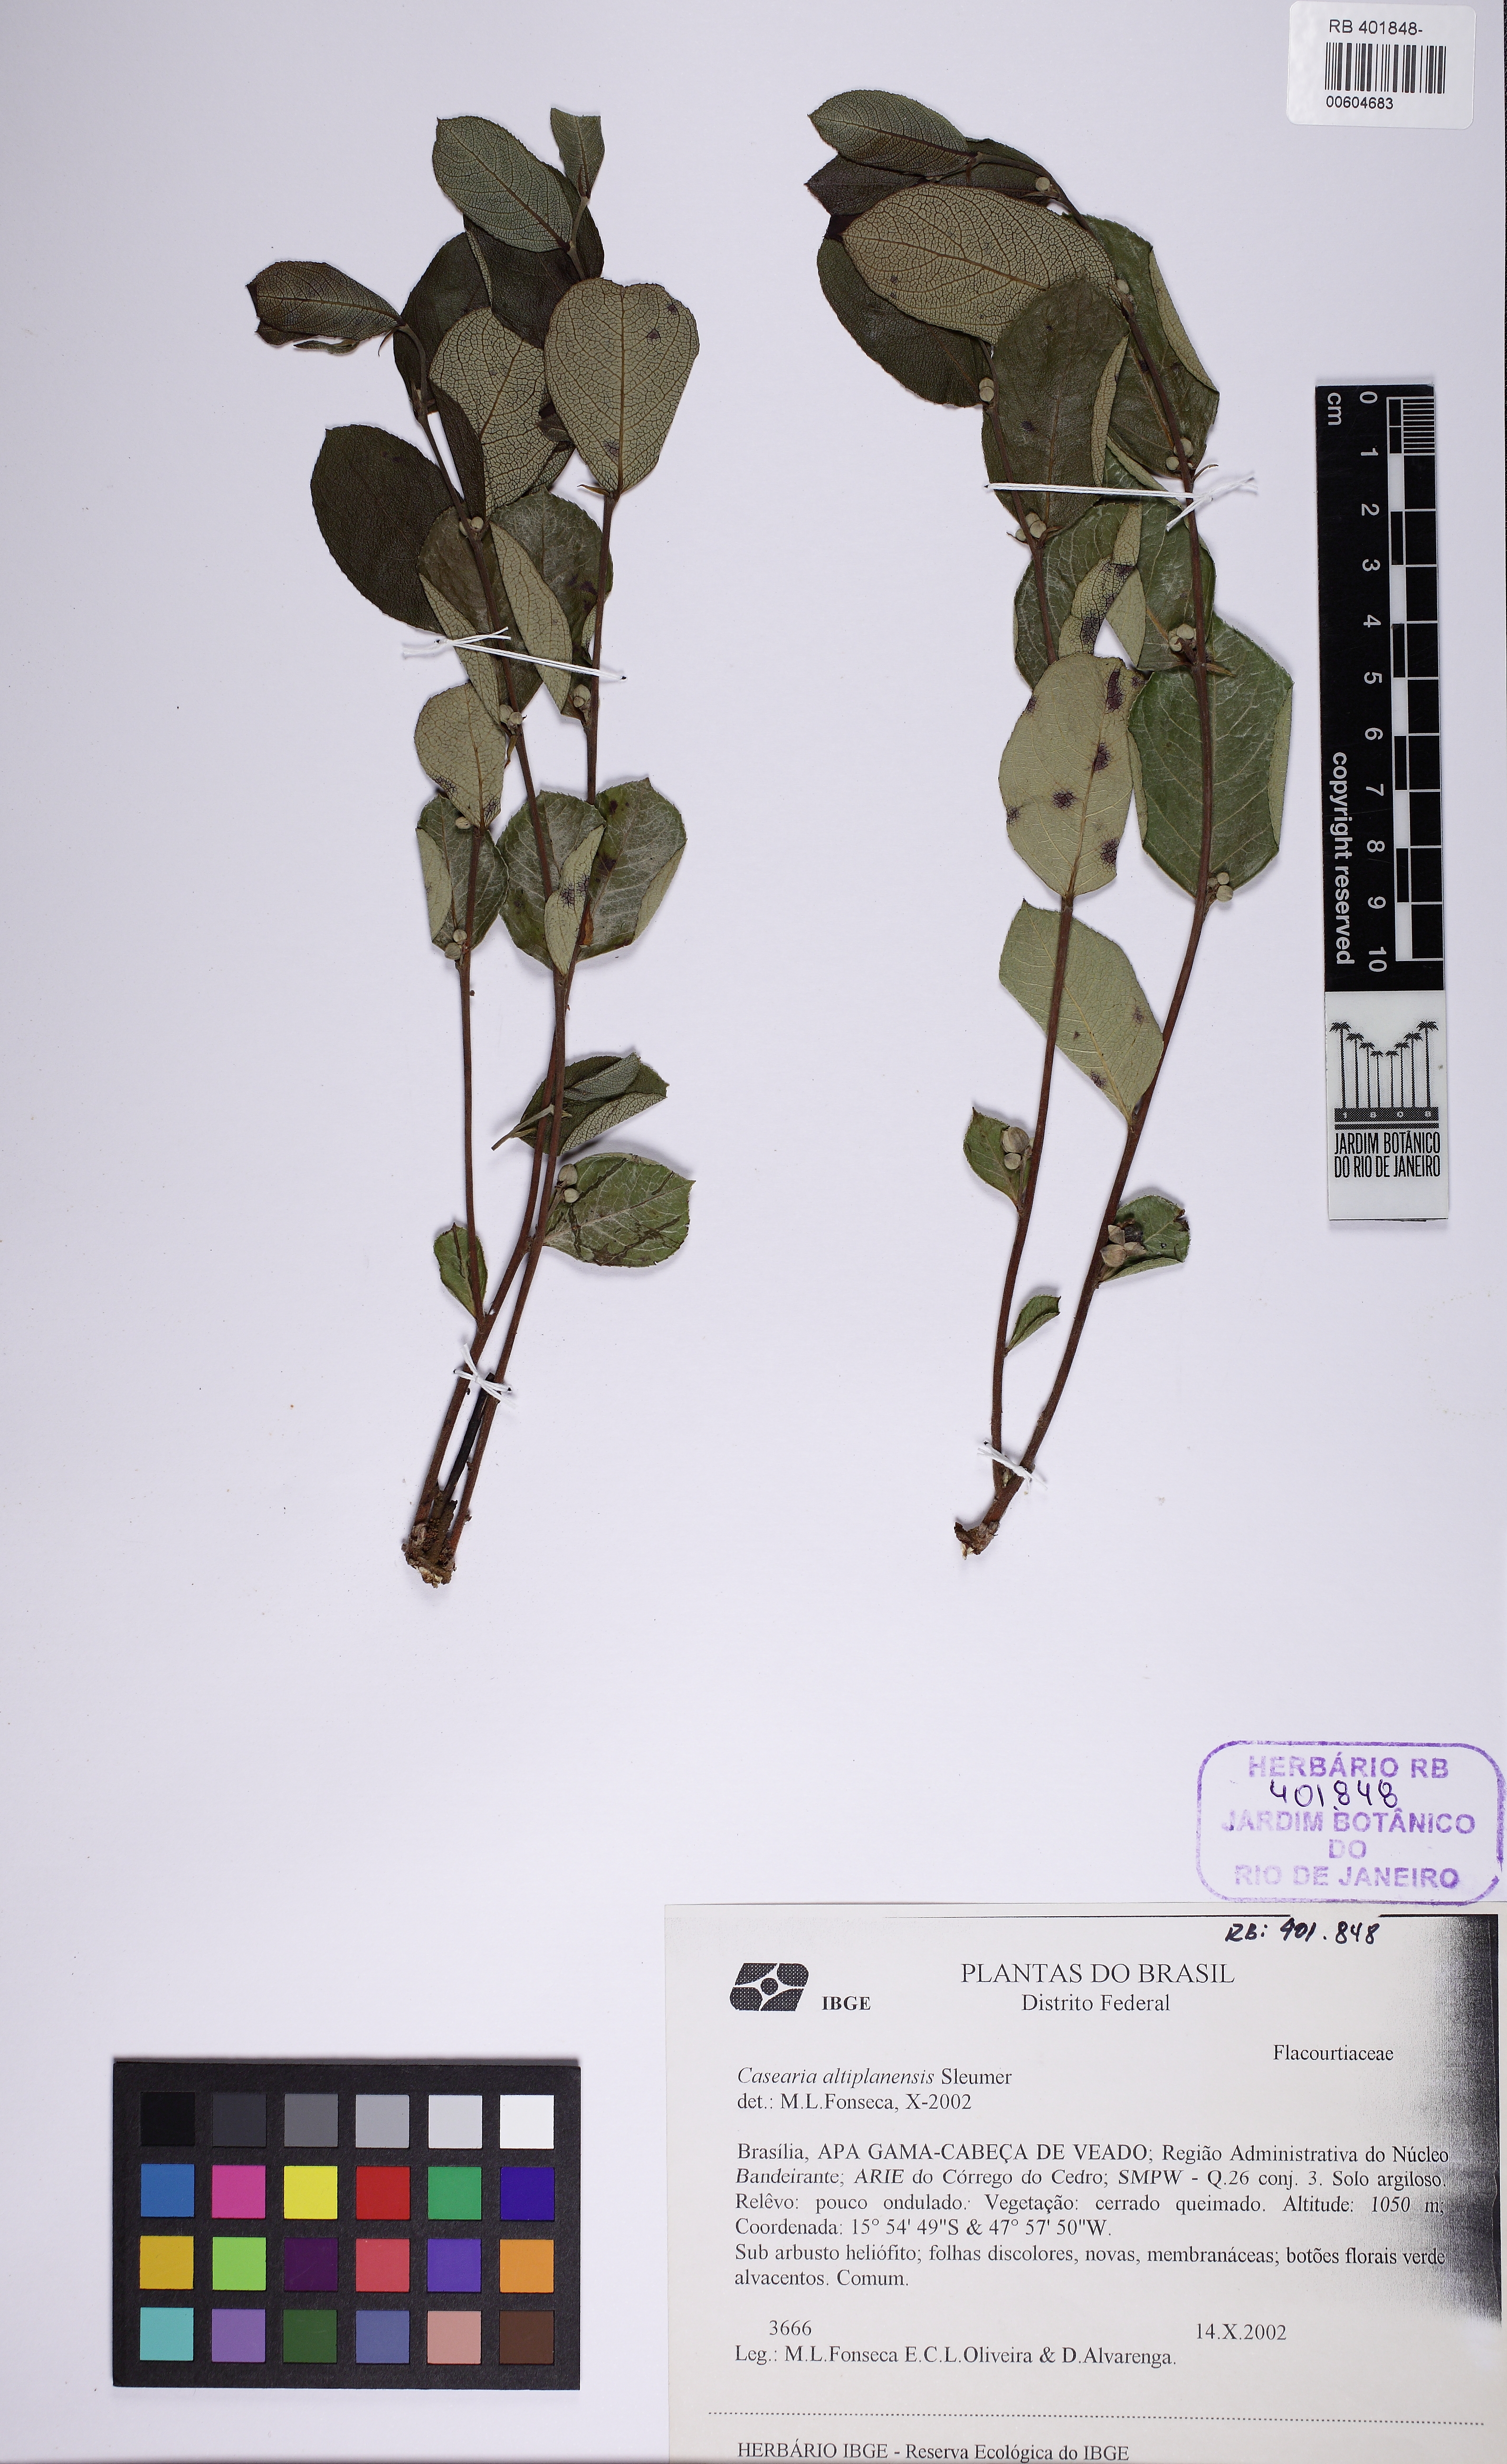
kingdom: Plantae
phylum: Tracheophyta
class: Magnoliopsida
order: Malpighiales
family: Salicaceae
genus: Casearia
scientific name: Casearia altiplanensis
